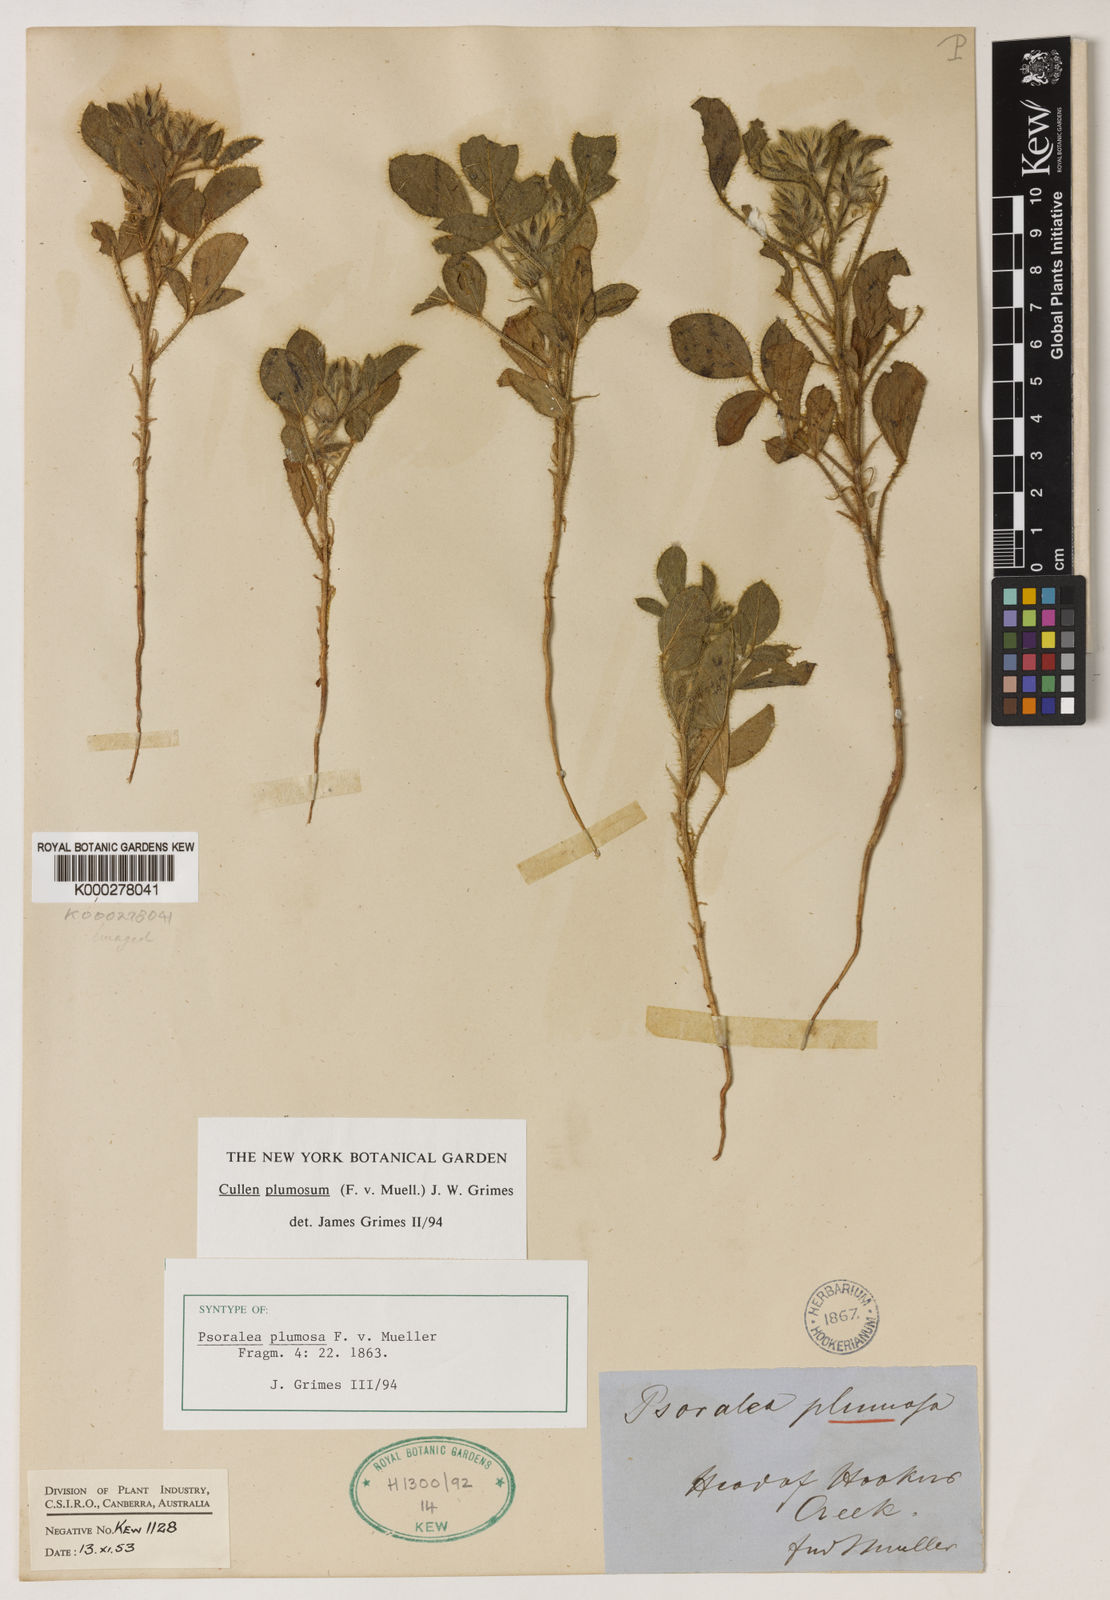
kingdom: Plantae
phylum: Tracheophyta
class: Magnoliopsida
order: Fabales
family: Fabaceae
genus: Cullen
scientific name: Cullen plumosum
